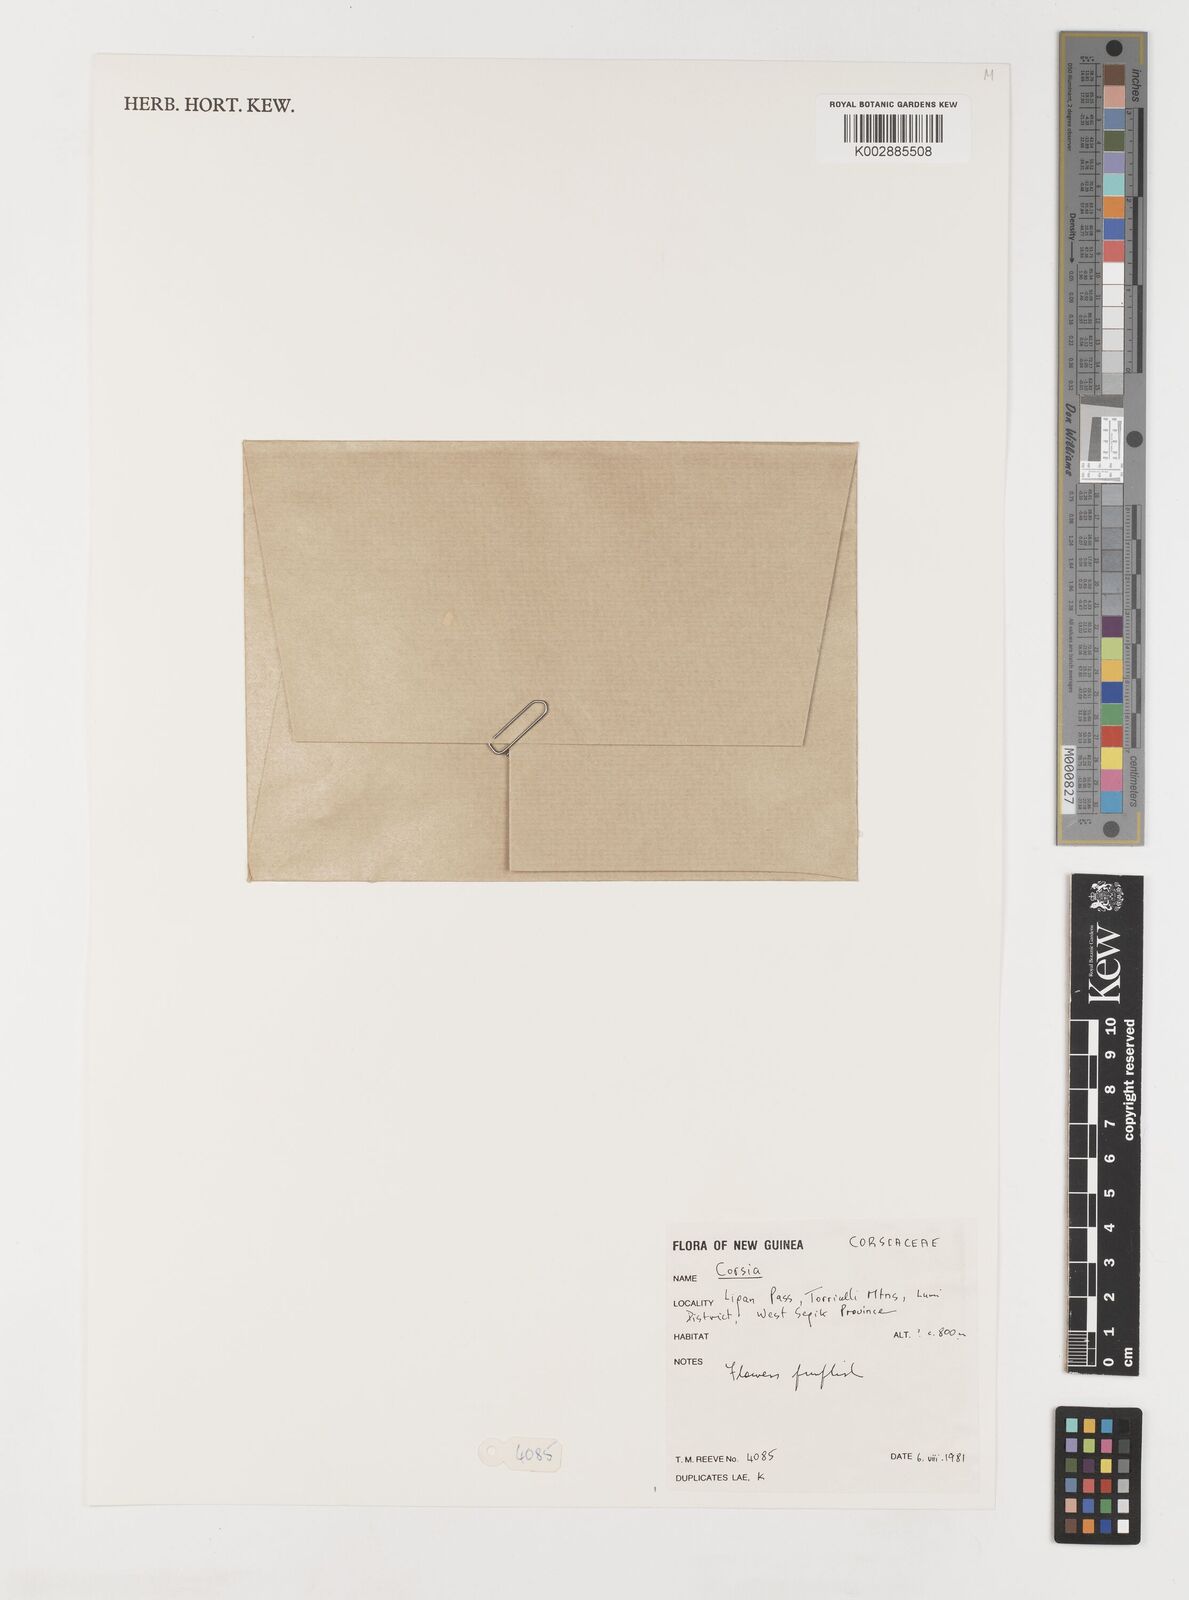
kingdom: Plantae
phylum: Tracheophyta
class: Liliopsida
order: Liliales
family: Corsiaceae
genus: Corsia
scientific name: Corsia
